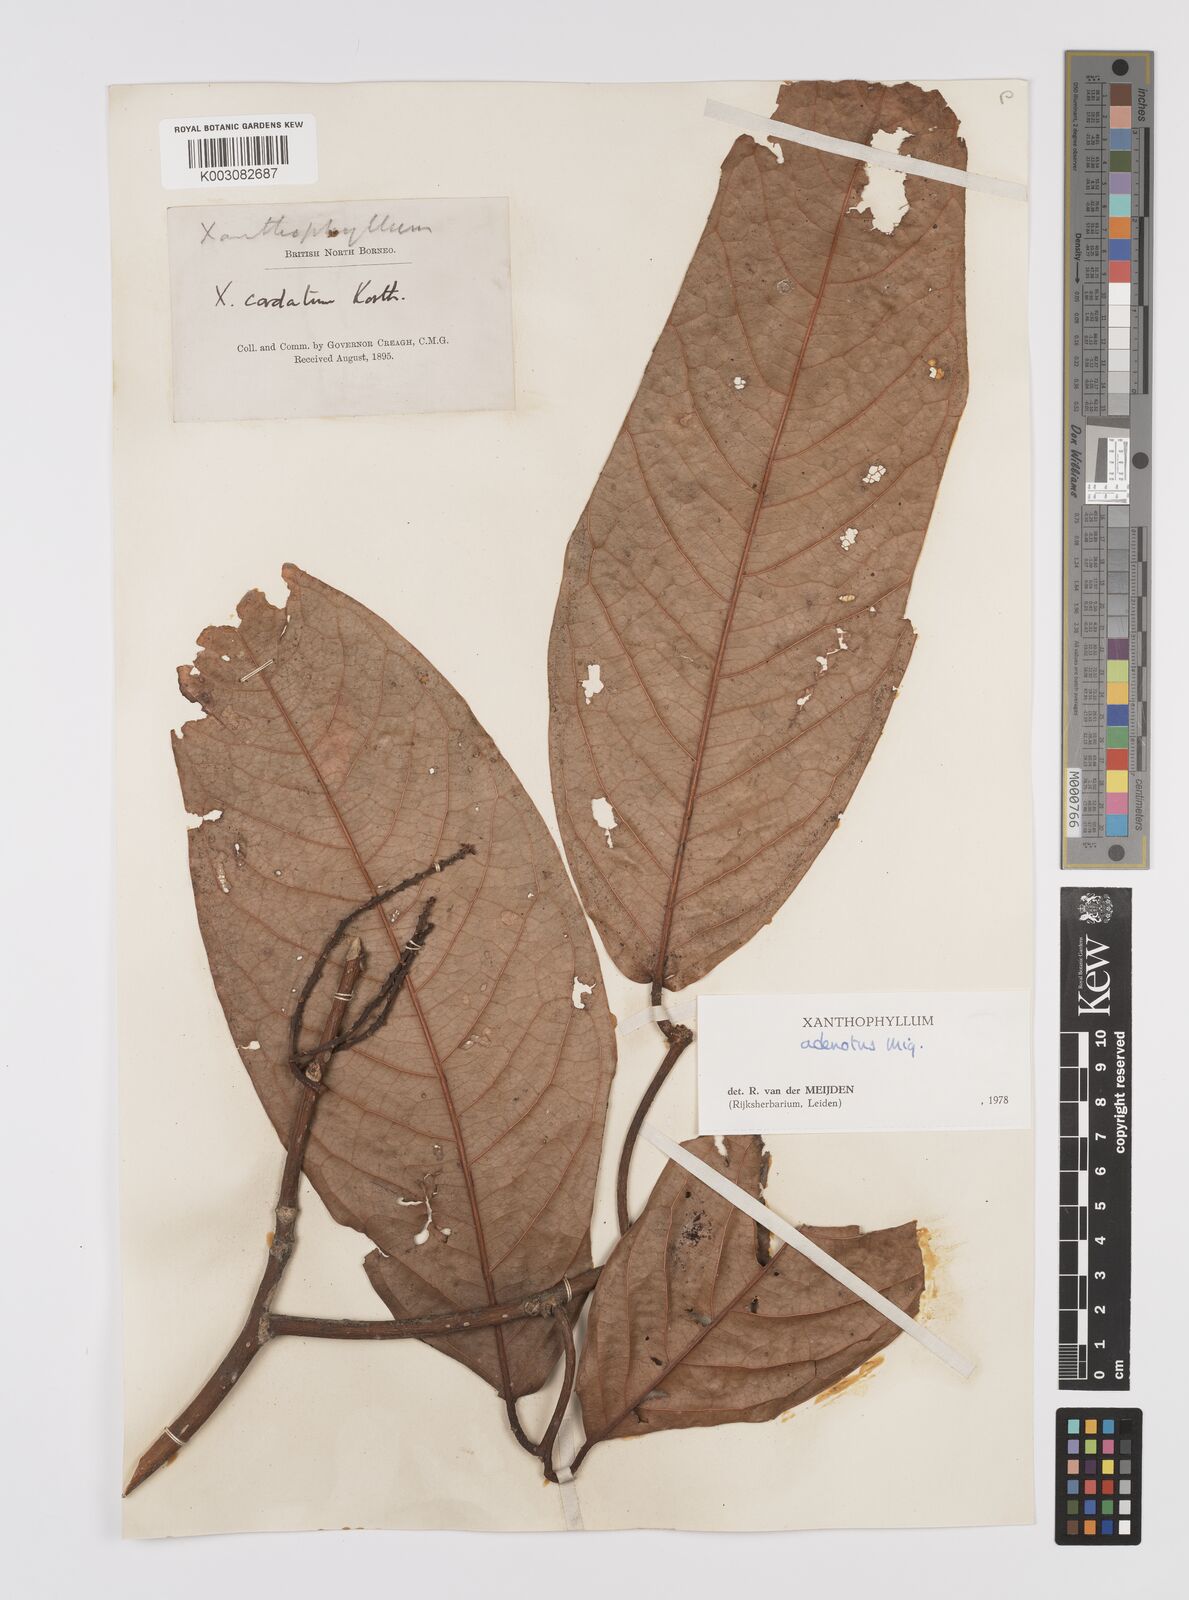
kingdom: Plantae
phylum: Tracheophyta
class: Magnoliopsida
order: Fabales
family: Polygalaceae
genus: Xanthophyllum
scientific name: Xanthophyllum adenotus
